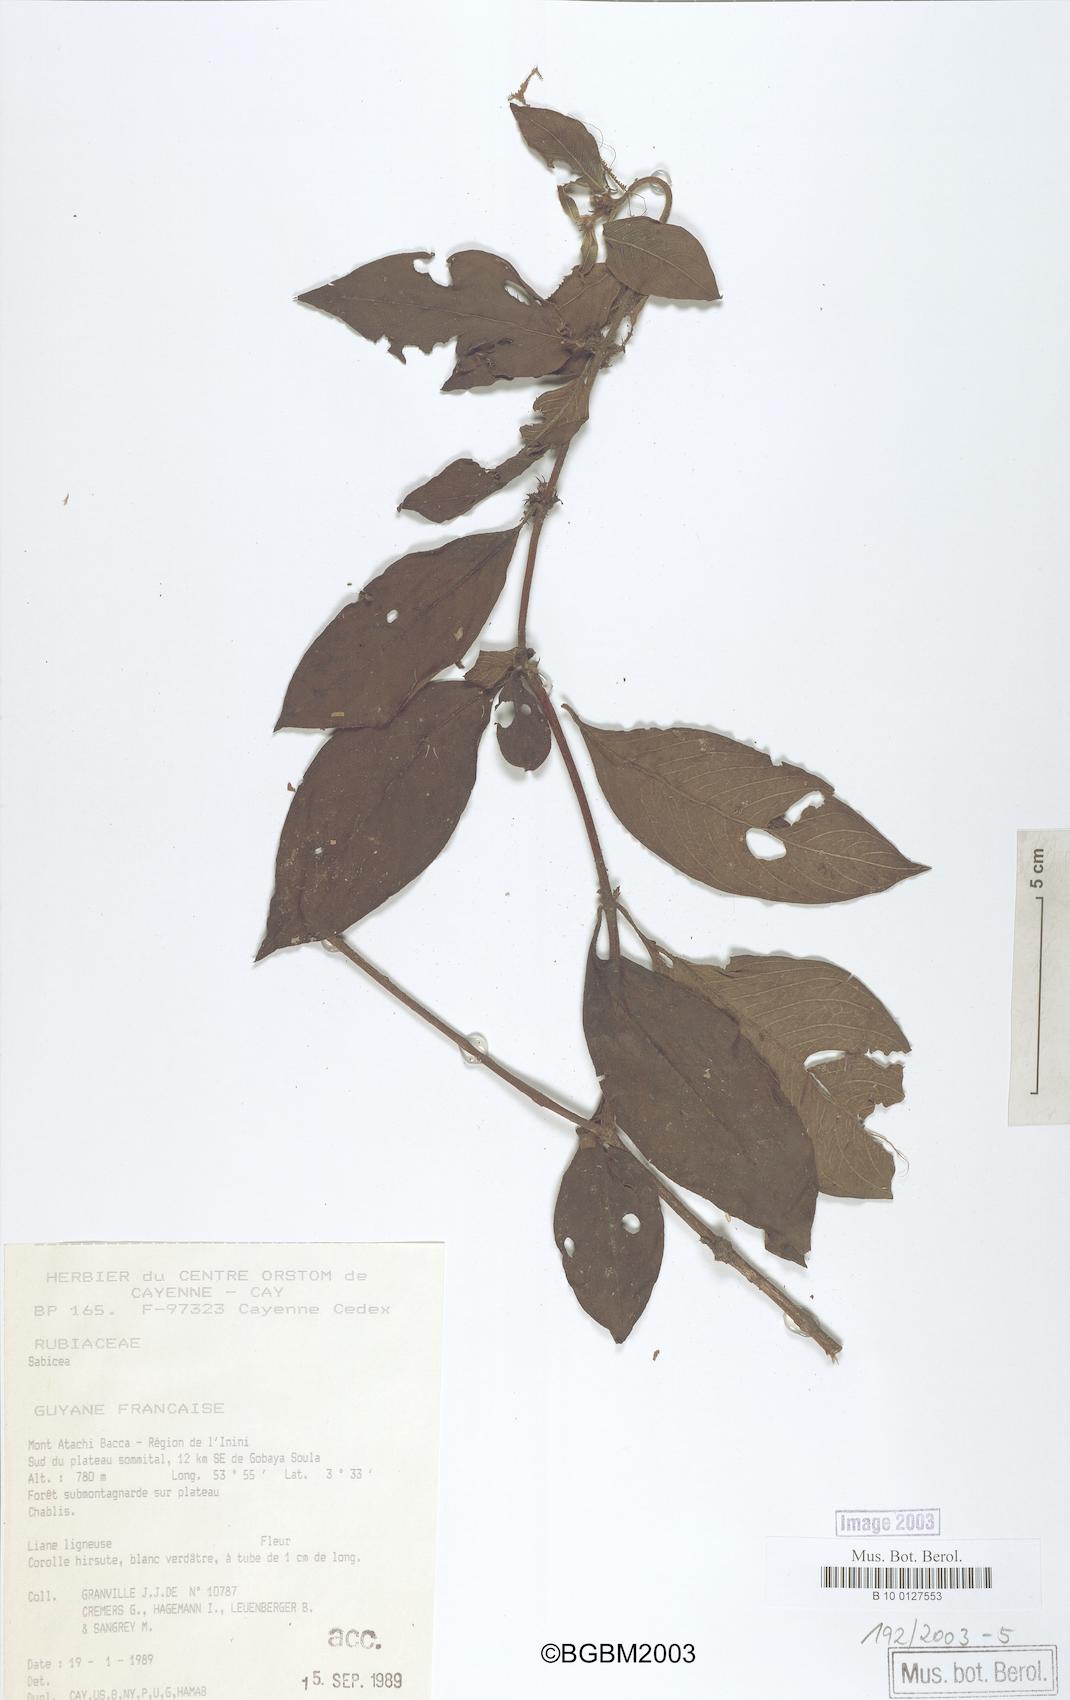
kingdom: Plantae
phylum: Tracheophyta
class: Magnoliopsida
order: Gentianales
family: Rubiaceae
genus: Sabicea
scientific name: Sabicea
